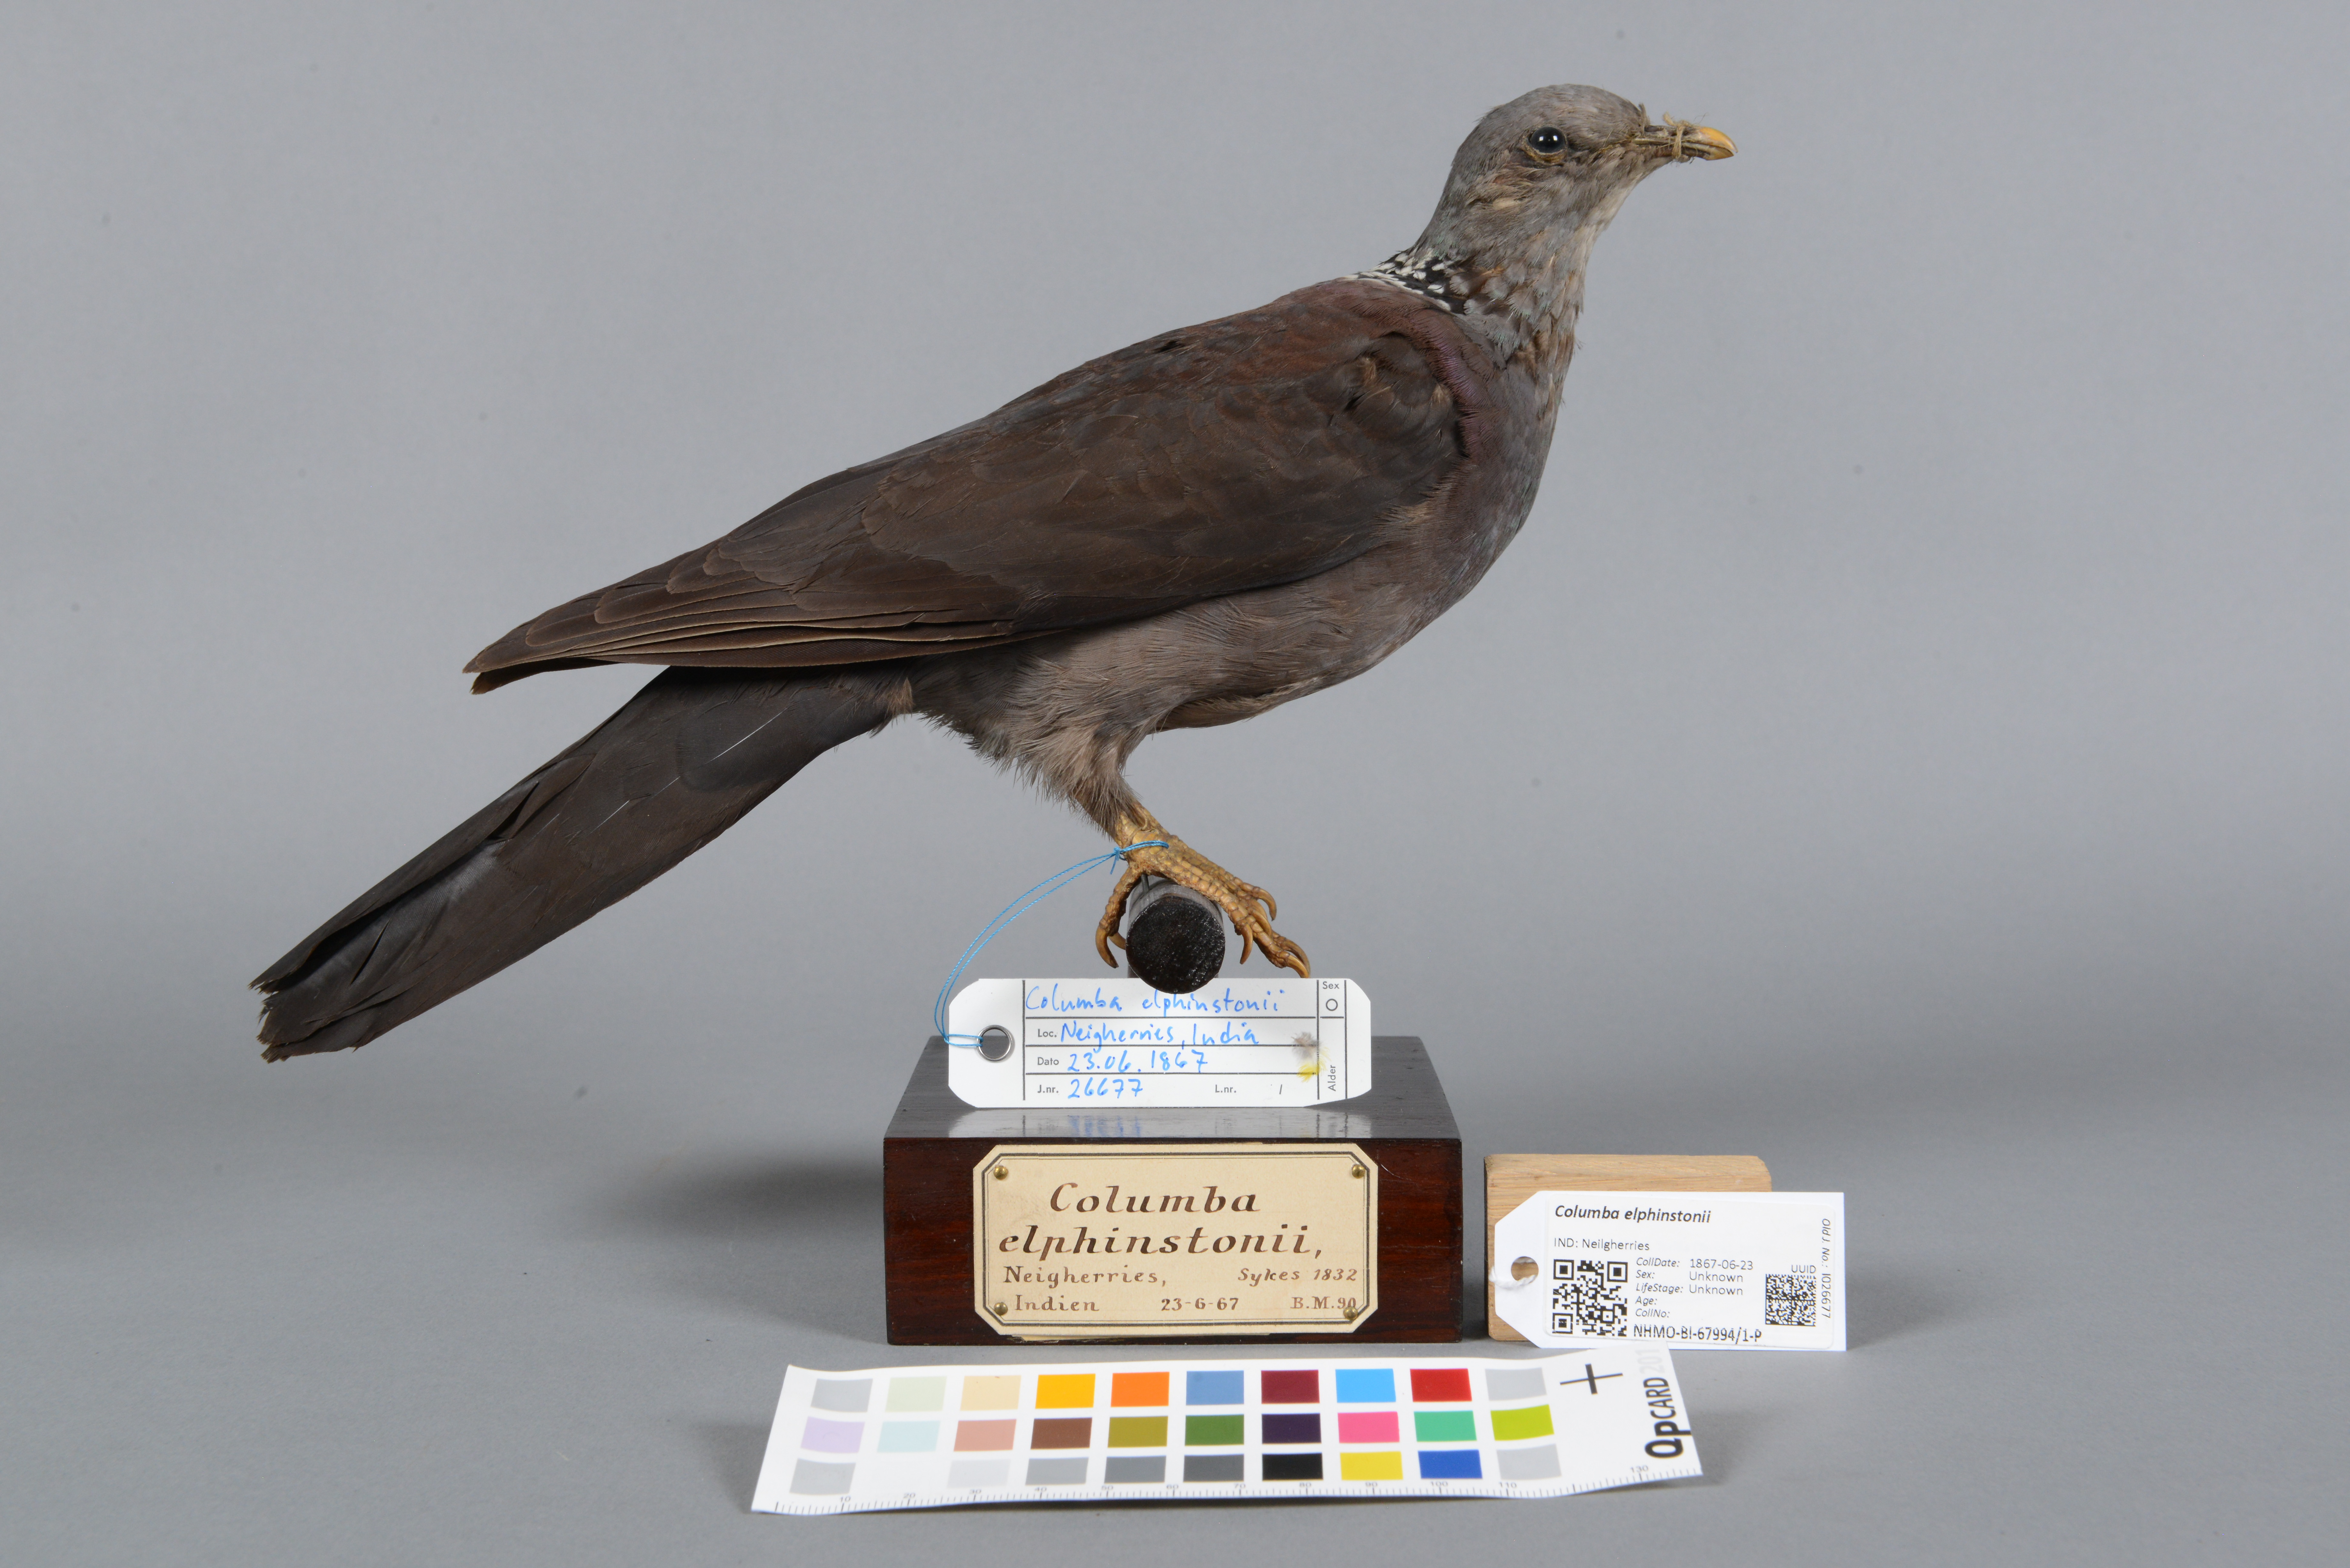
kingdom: Animalia
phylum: Chordata
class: Aves
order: Columbiformes
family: Columbidae
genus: Columba
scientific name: Columba elphinstonii
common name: Nilgiri wood pigeon
